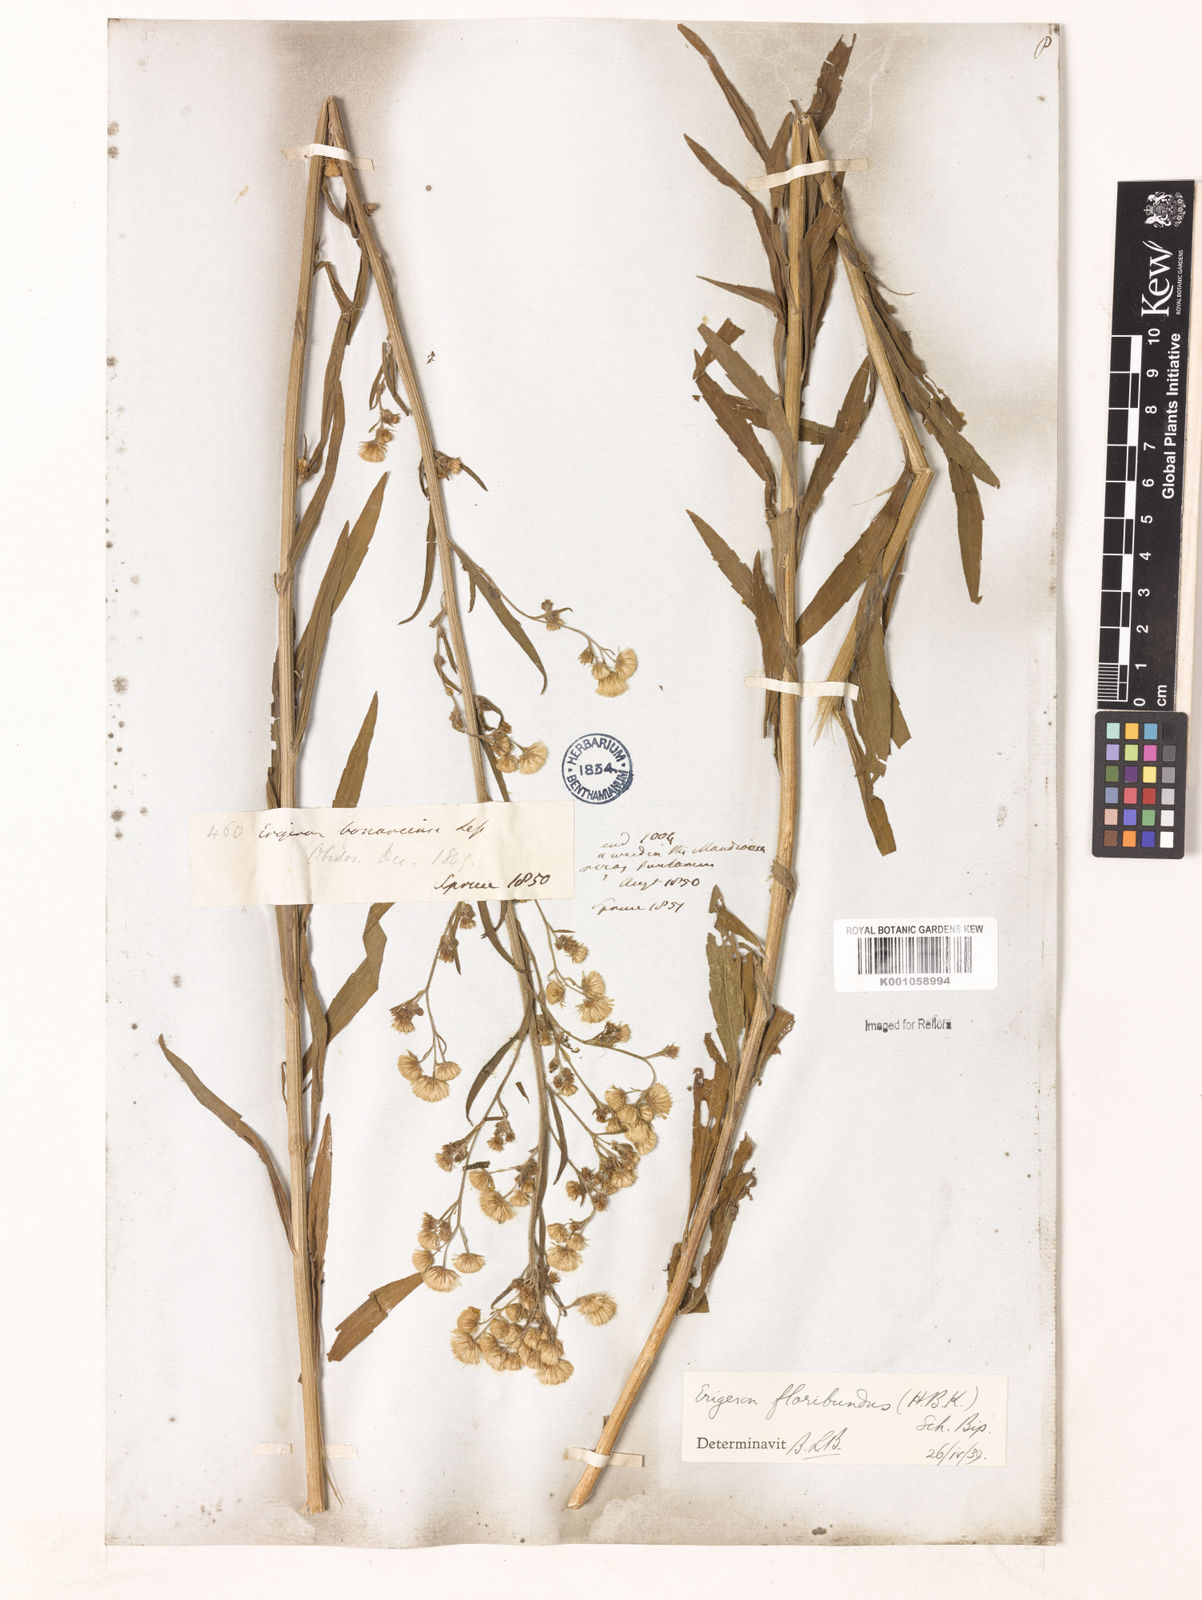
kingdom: Plantae
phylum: Tracheophyta
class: Magnoliopsida
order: Asterales
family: Asteraceae
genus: Erigeron
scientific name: Erigeron floribundus
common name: Bilbao fleabane
